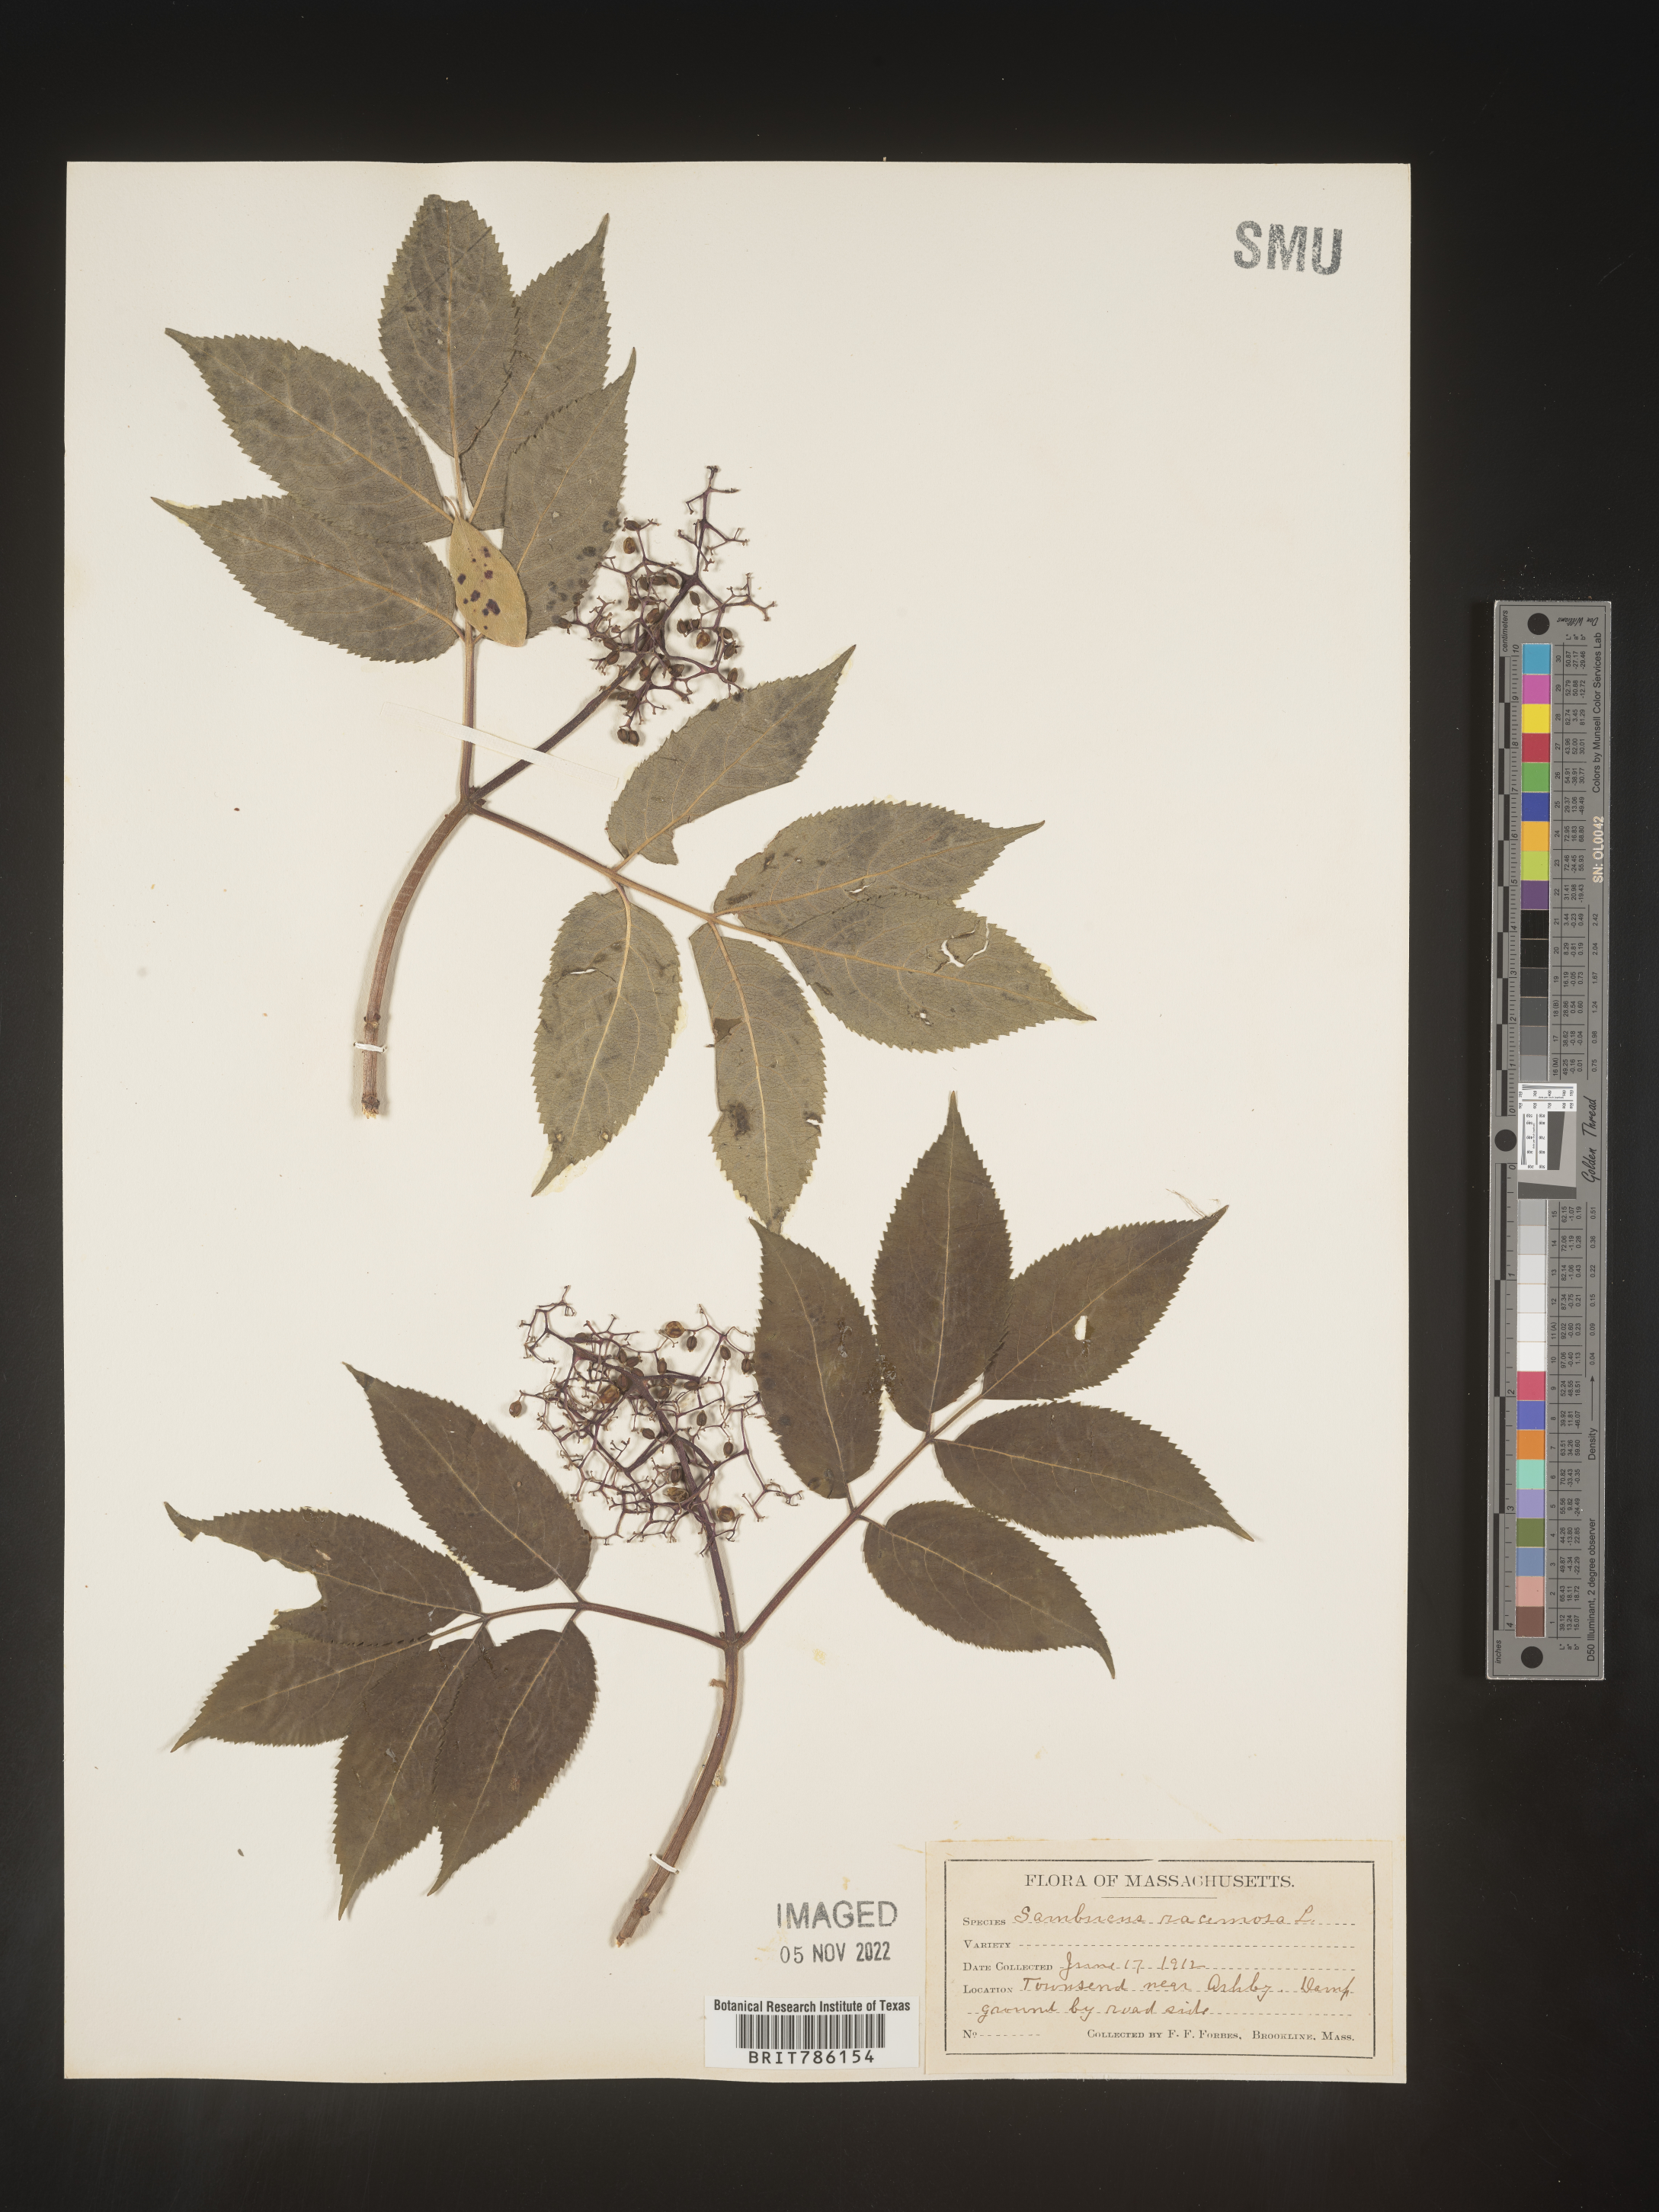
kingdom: Plantae
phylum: Tracheophyta
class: Magnoliopsida
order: Dipsacales
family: Viburnaceae
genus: Sambucus
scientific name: Sambucus
